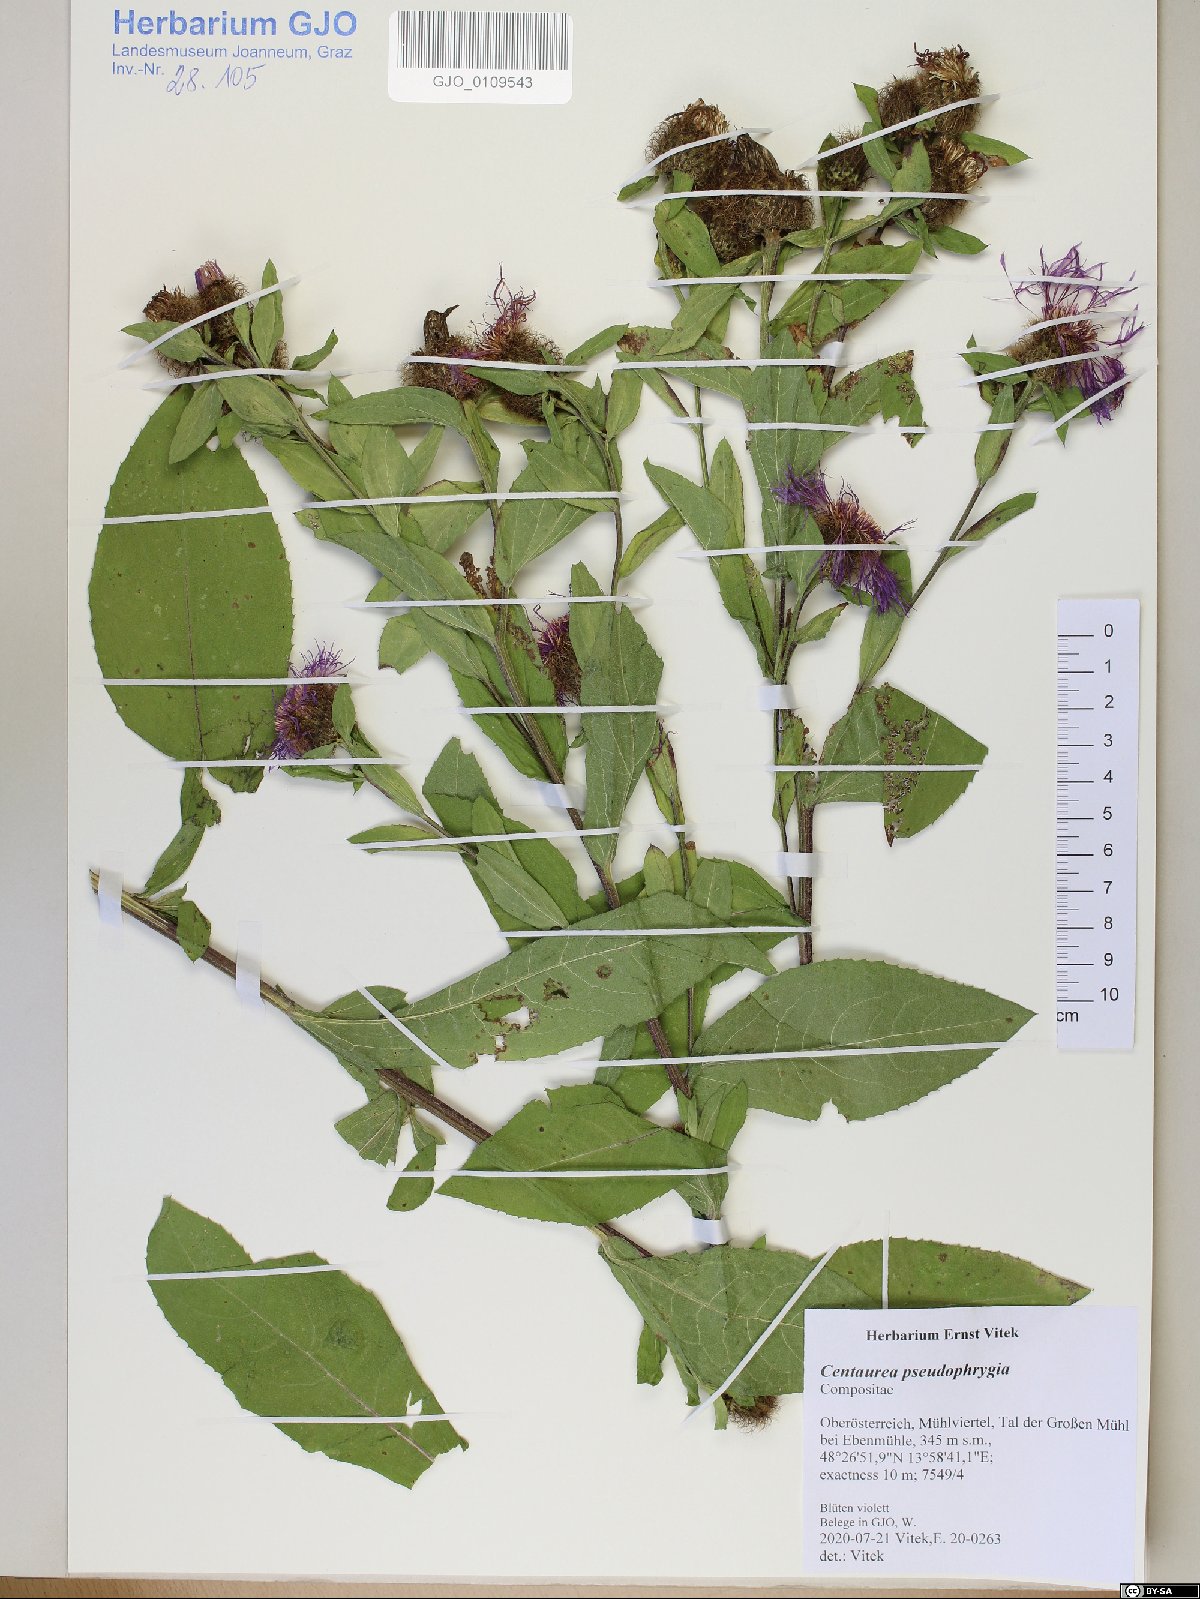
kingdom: Plantae
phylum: Tracheophyta
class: Magnoliopsida
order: Asterales
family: Asteraceae
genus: Centaurea
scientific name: Centaurea pseudophrygia
